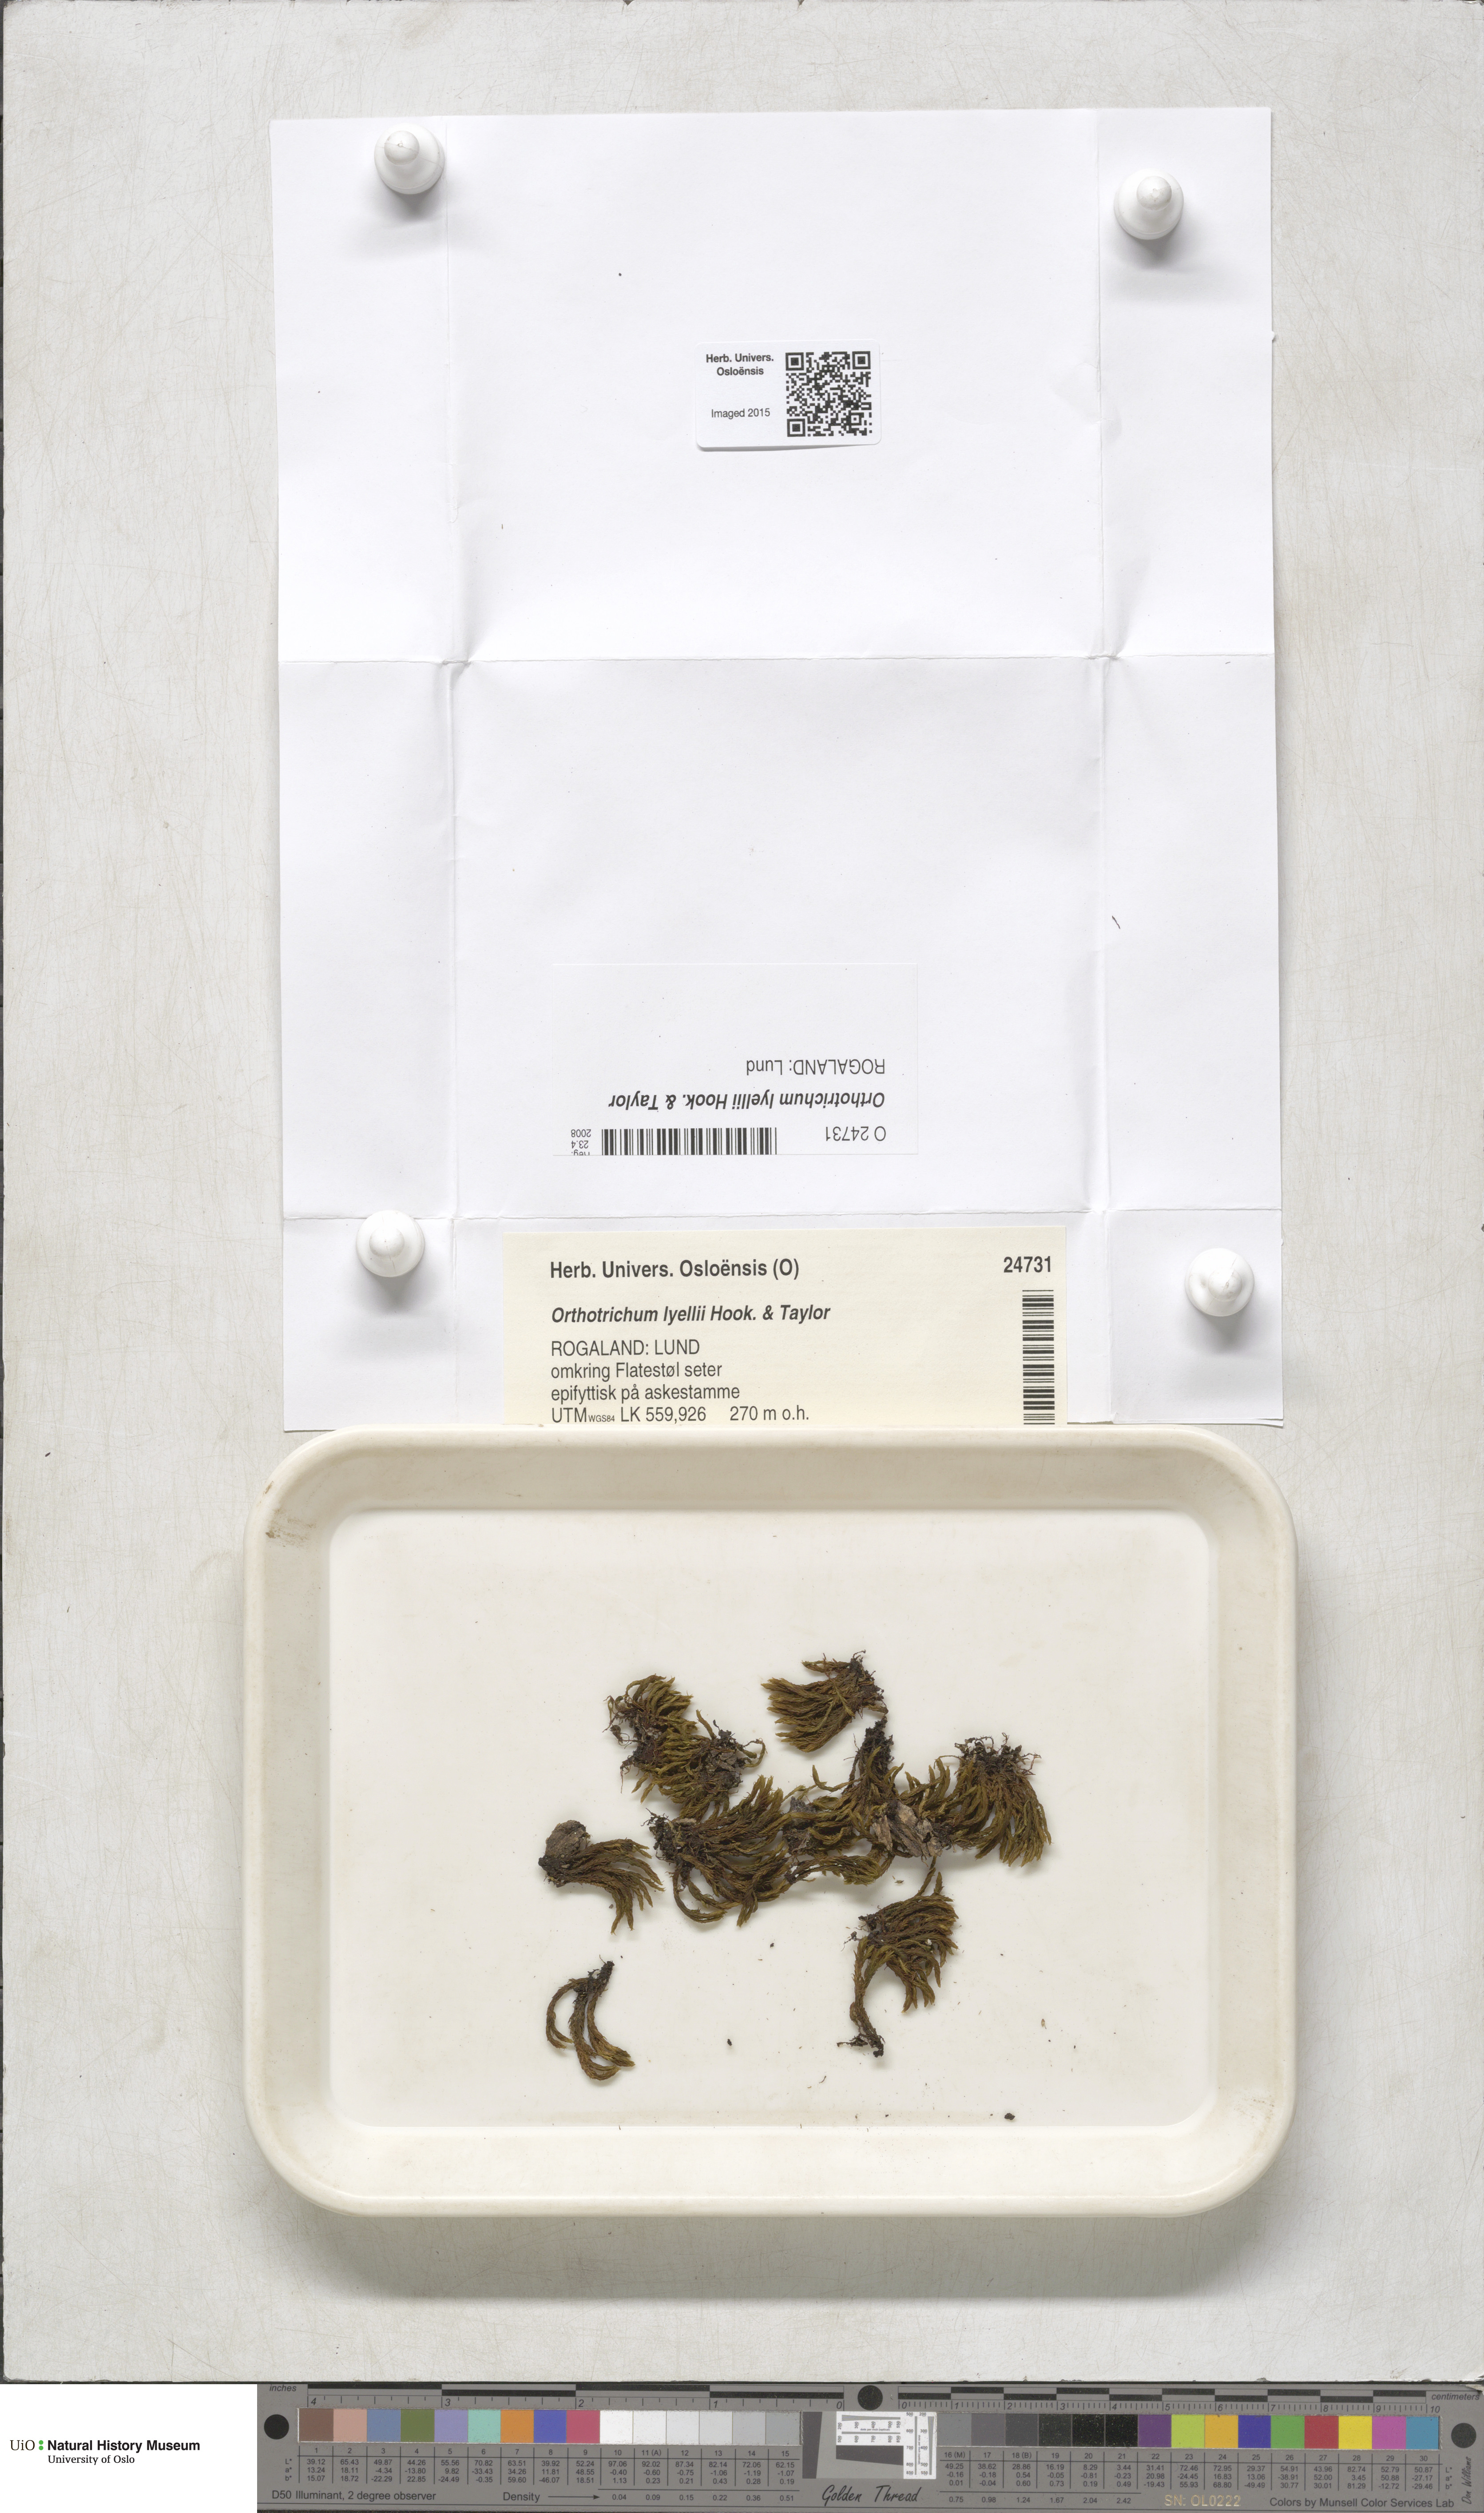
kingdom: Plantae
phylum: Bryophyta
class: Bryopsida
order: Orthotrichales
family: Orthotrichaceae
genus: Pulvigera
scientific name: Pulvigera lyellii
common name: Lyell's bristle-moss
